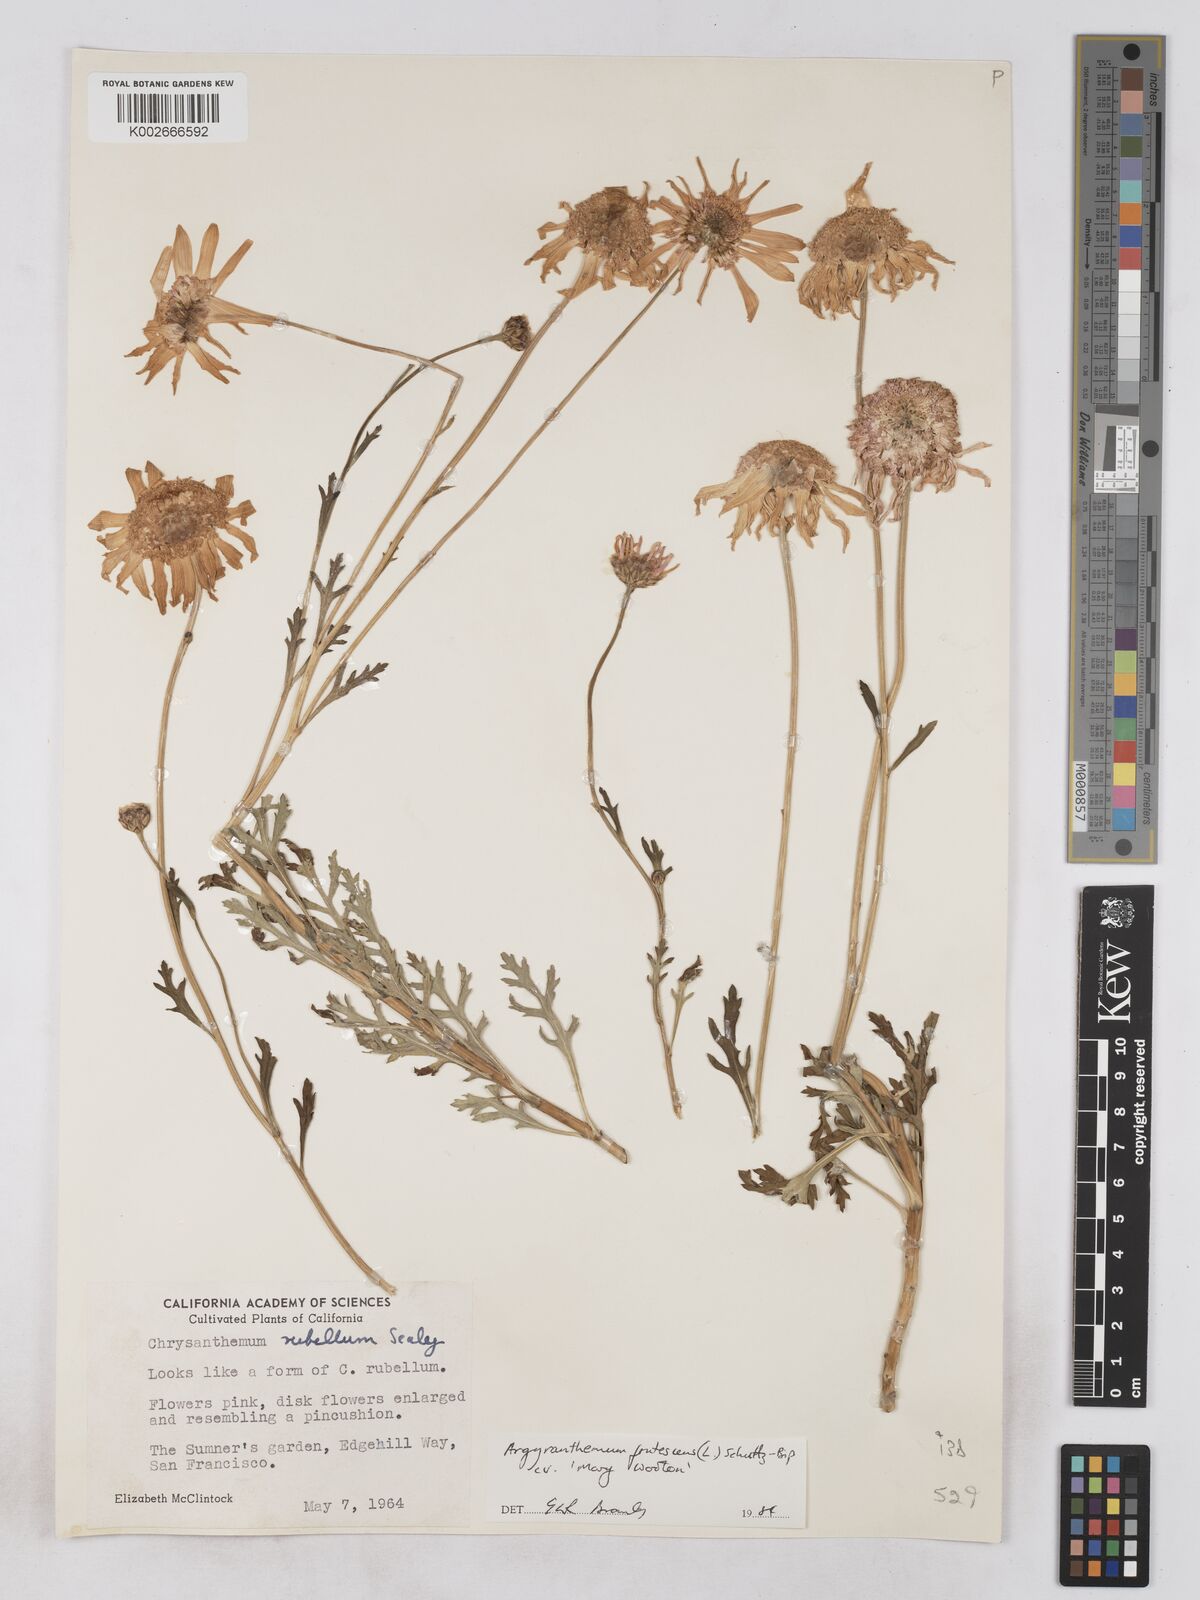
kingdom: Plantae
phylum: Tracheophyta
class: Magnoliopsida
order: Asterales
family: Asteraceae
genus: Argyranthemum
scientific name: Argyranthemum frutescens
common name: Paris daisy
